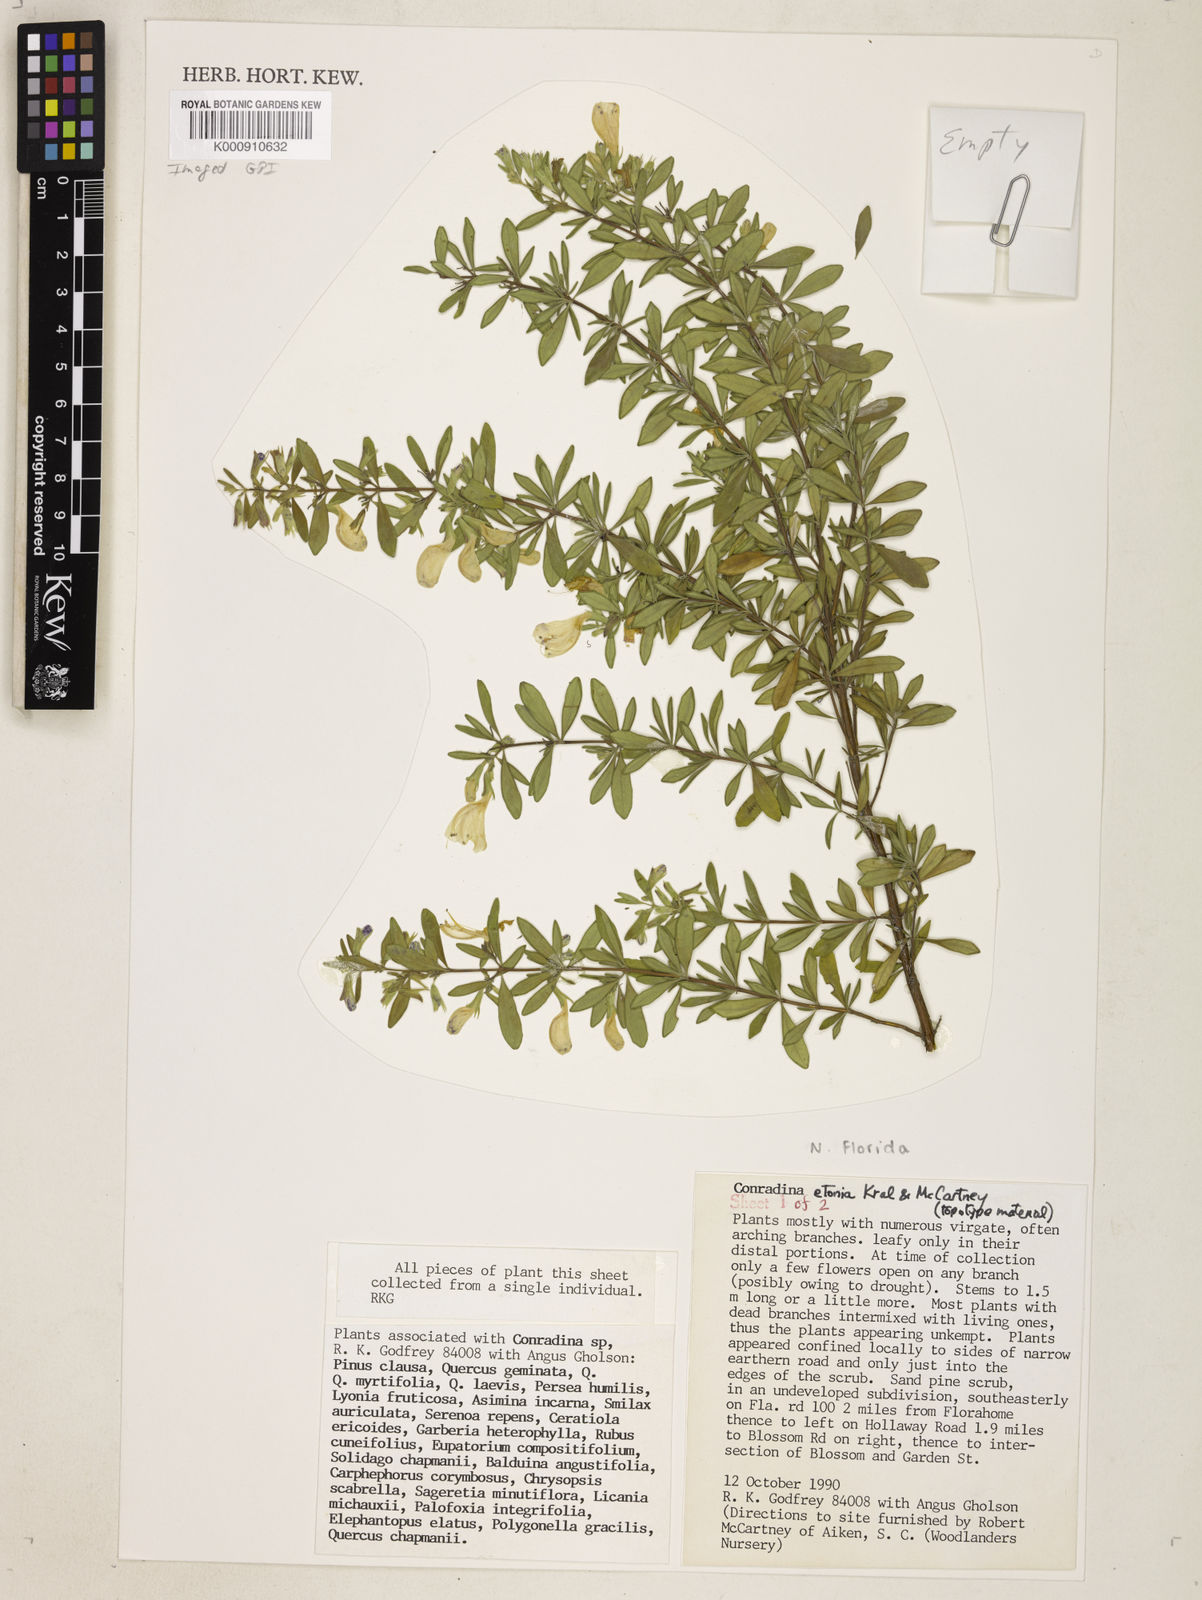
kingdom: Plantae
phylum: Tracheophyta
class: Magnoliopsida
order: Lamiales
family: Lamiaceae
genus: Conradina
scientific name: Conradina grandiflora
